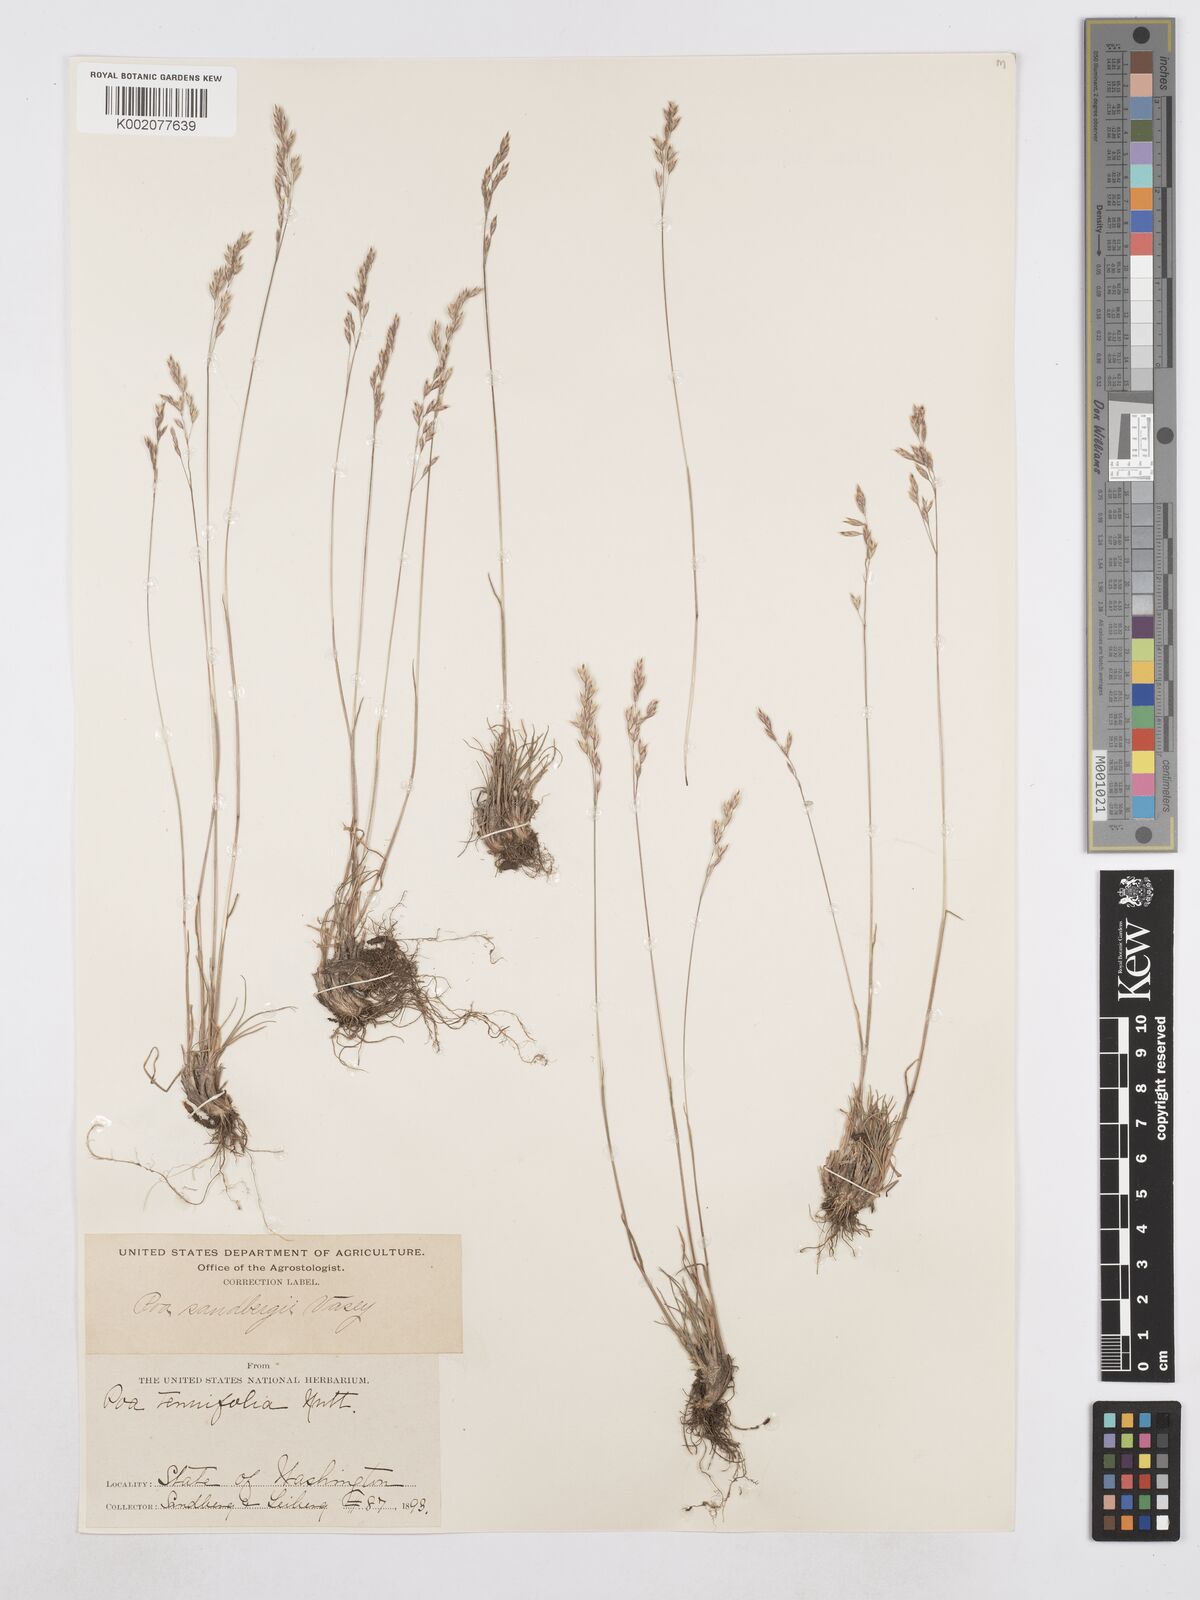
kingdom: Plantae
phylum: Tracheophyta
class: Liliopsida
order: Poales
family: Poaceae
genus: Poa
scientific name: Poa secunda
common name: Sandberg bluegrass
